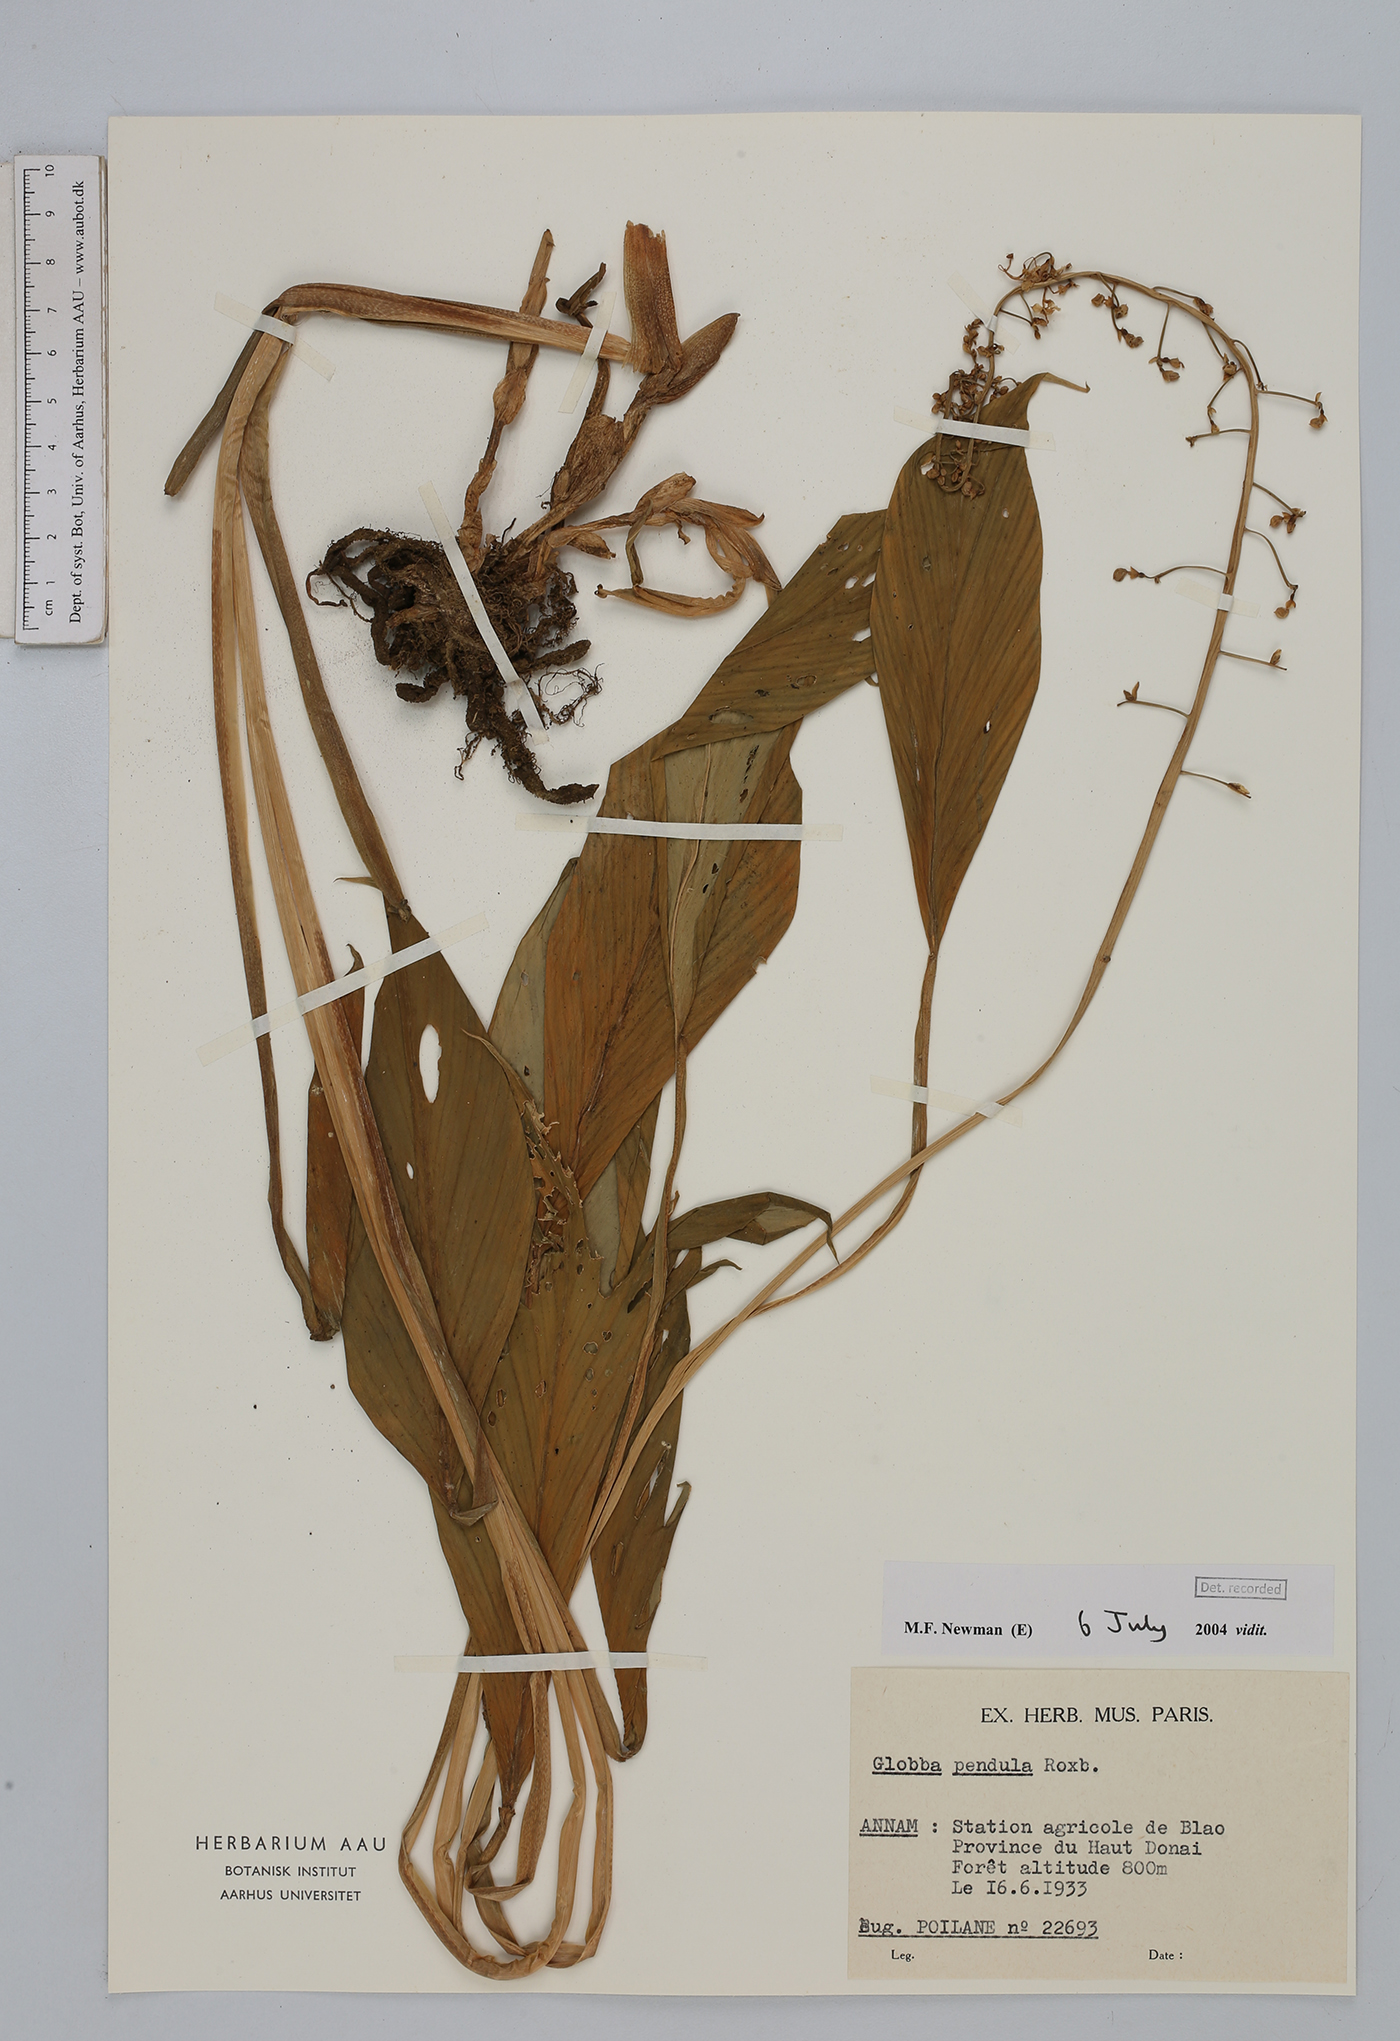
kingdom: Plantae
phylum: Tracheophyta
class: Liliopsida
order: Zingiberales
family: Zingiberaceae
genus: Globba
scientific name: Globba pendula
